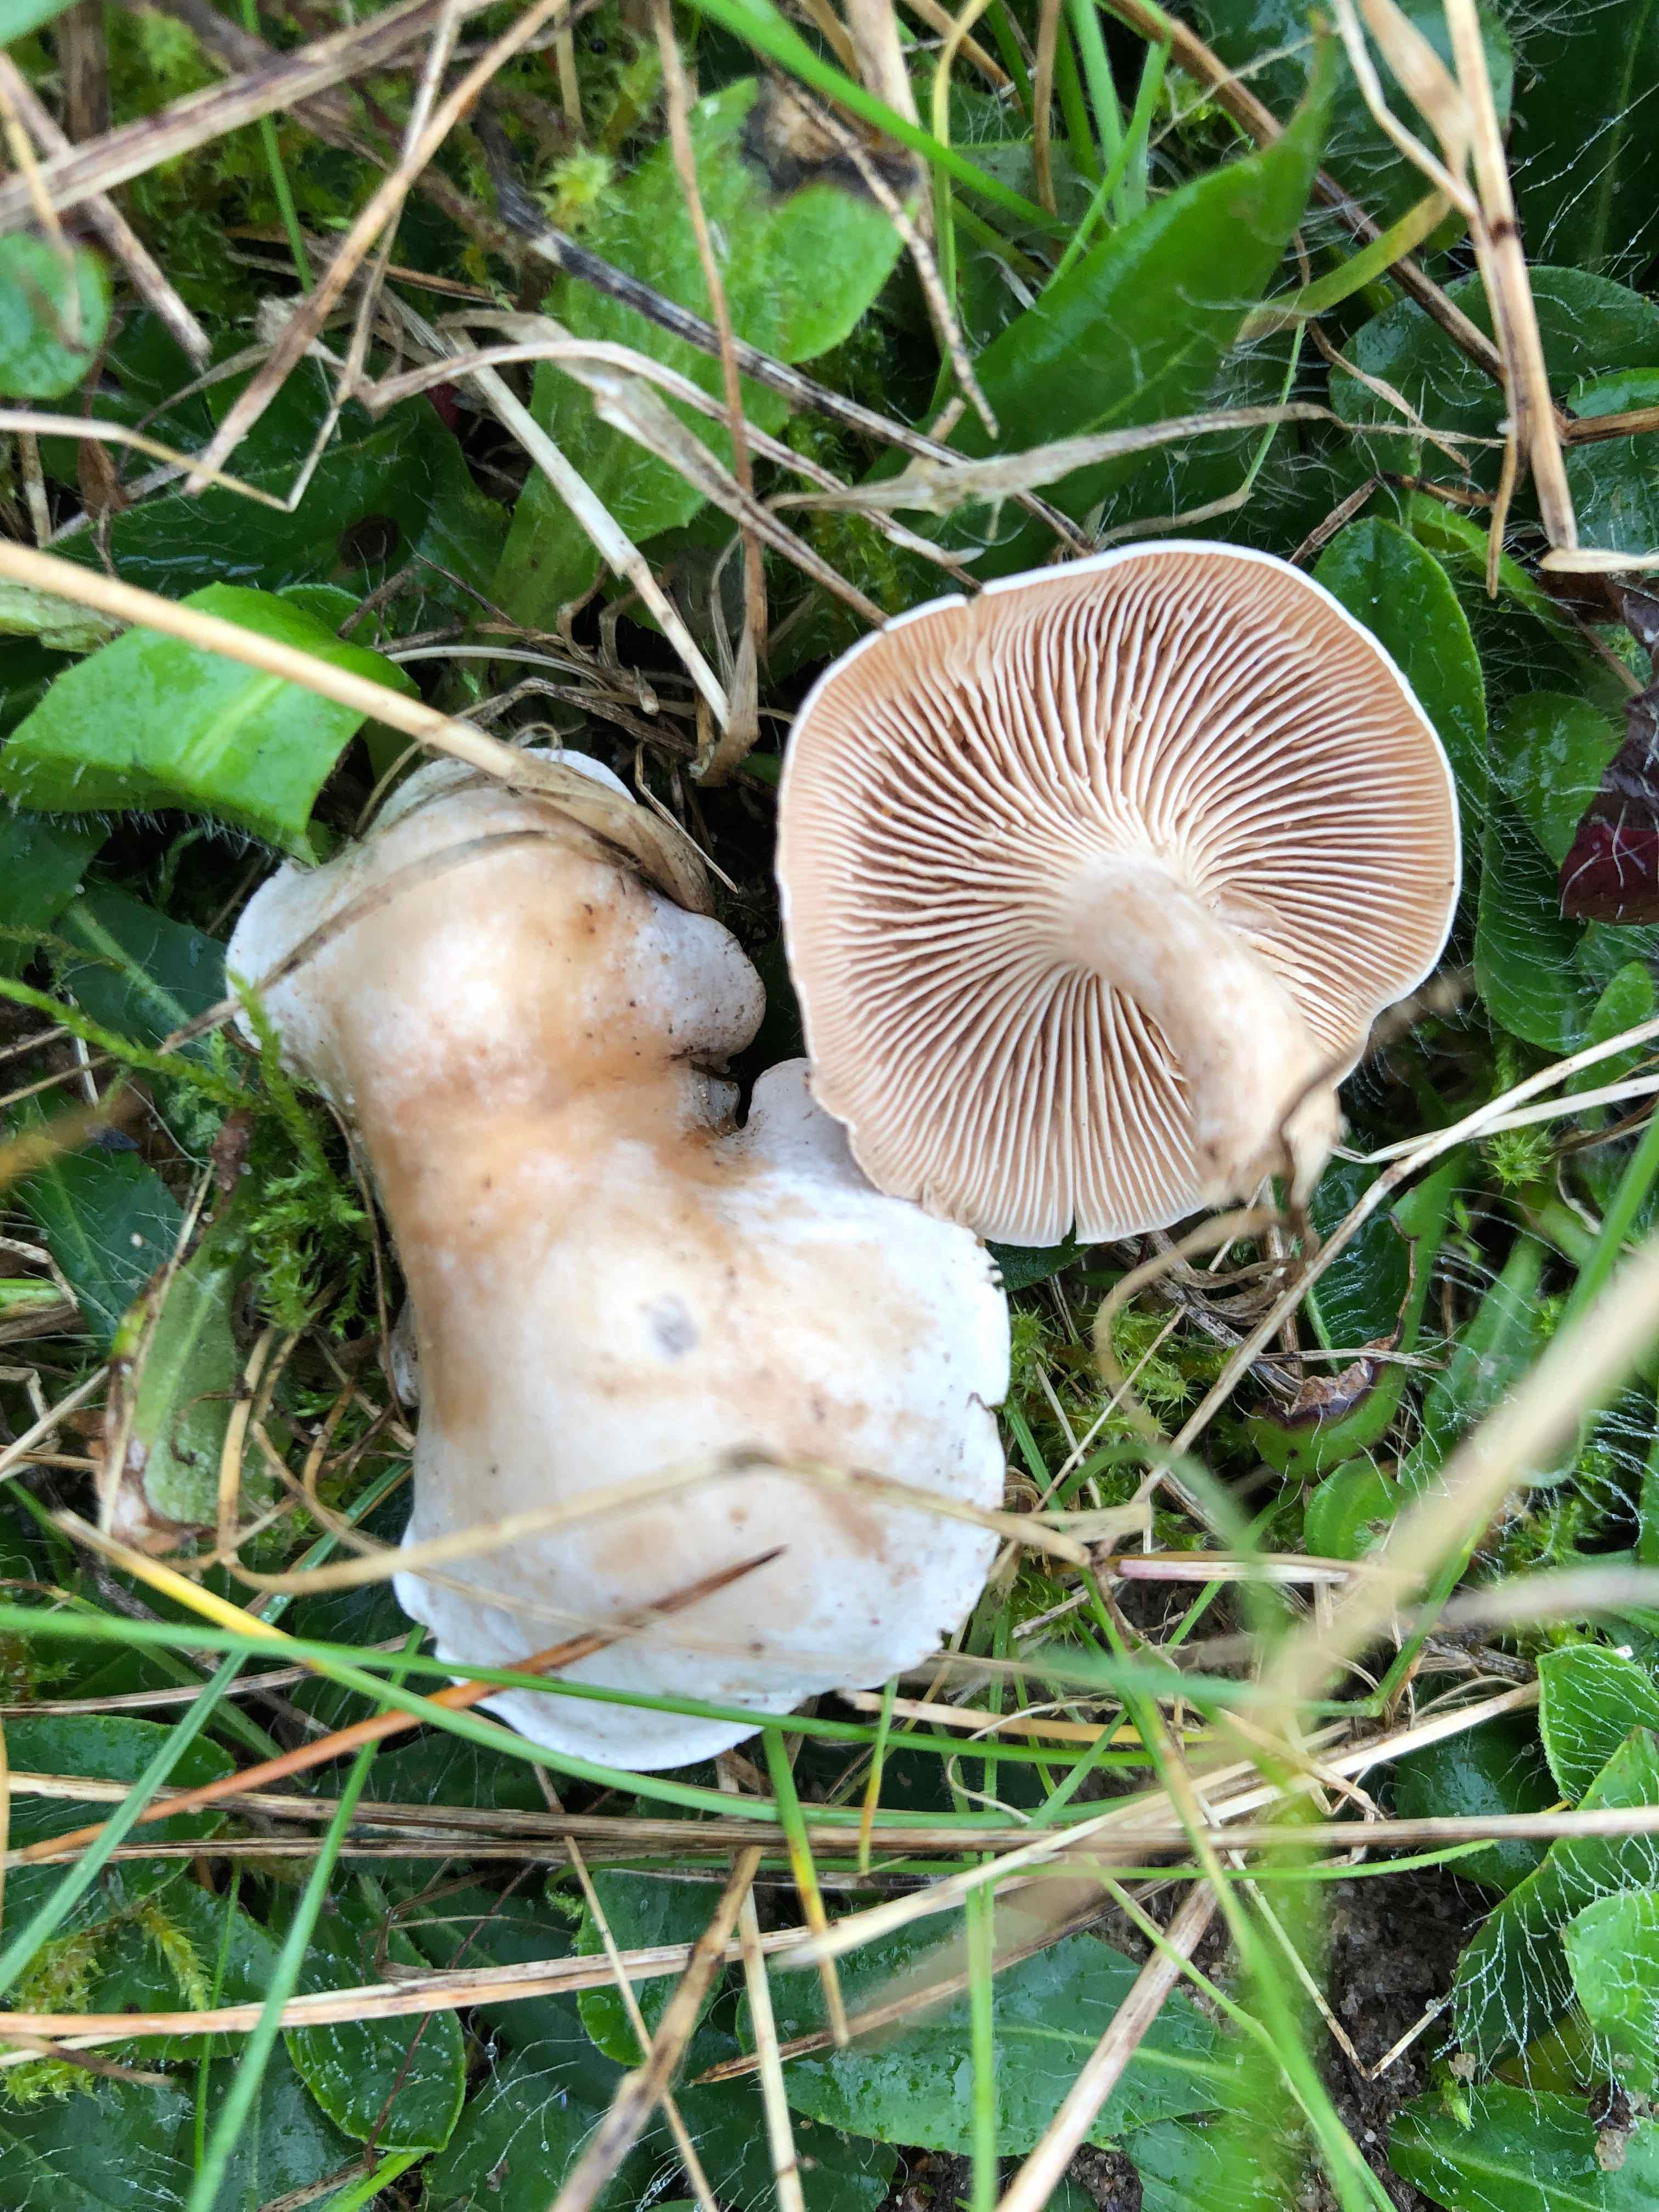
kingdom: Fungi
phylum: Basidiomycota
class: Agaricomycetes
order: Agaricales
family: Tricholomataceae
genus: Clitocybe
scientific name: Clitocybe rivulosa
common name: eng-tragthat
